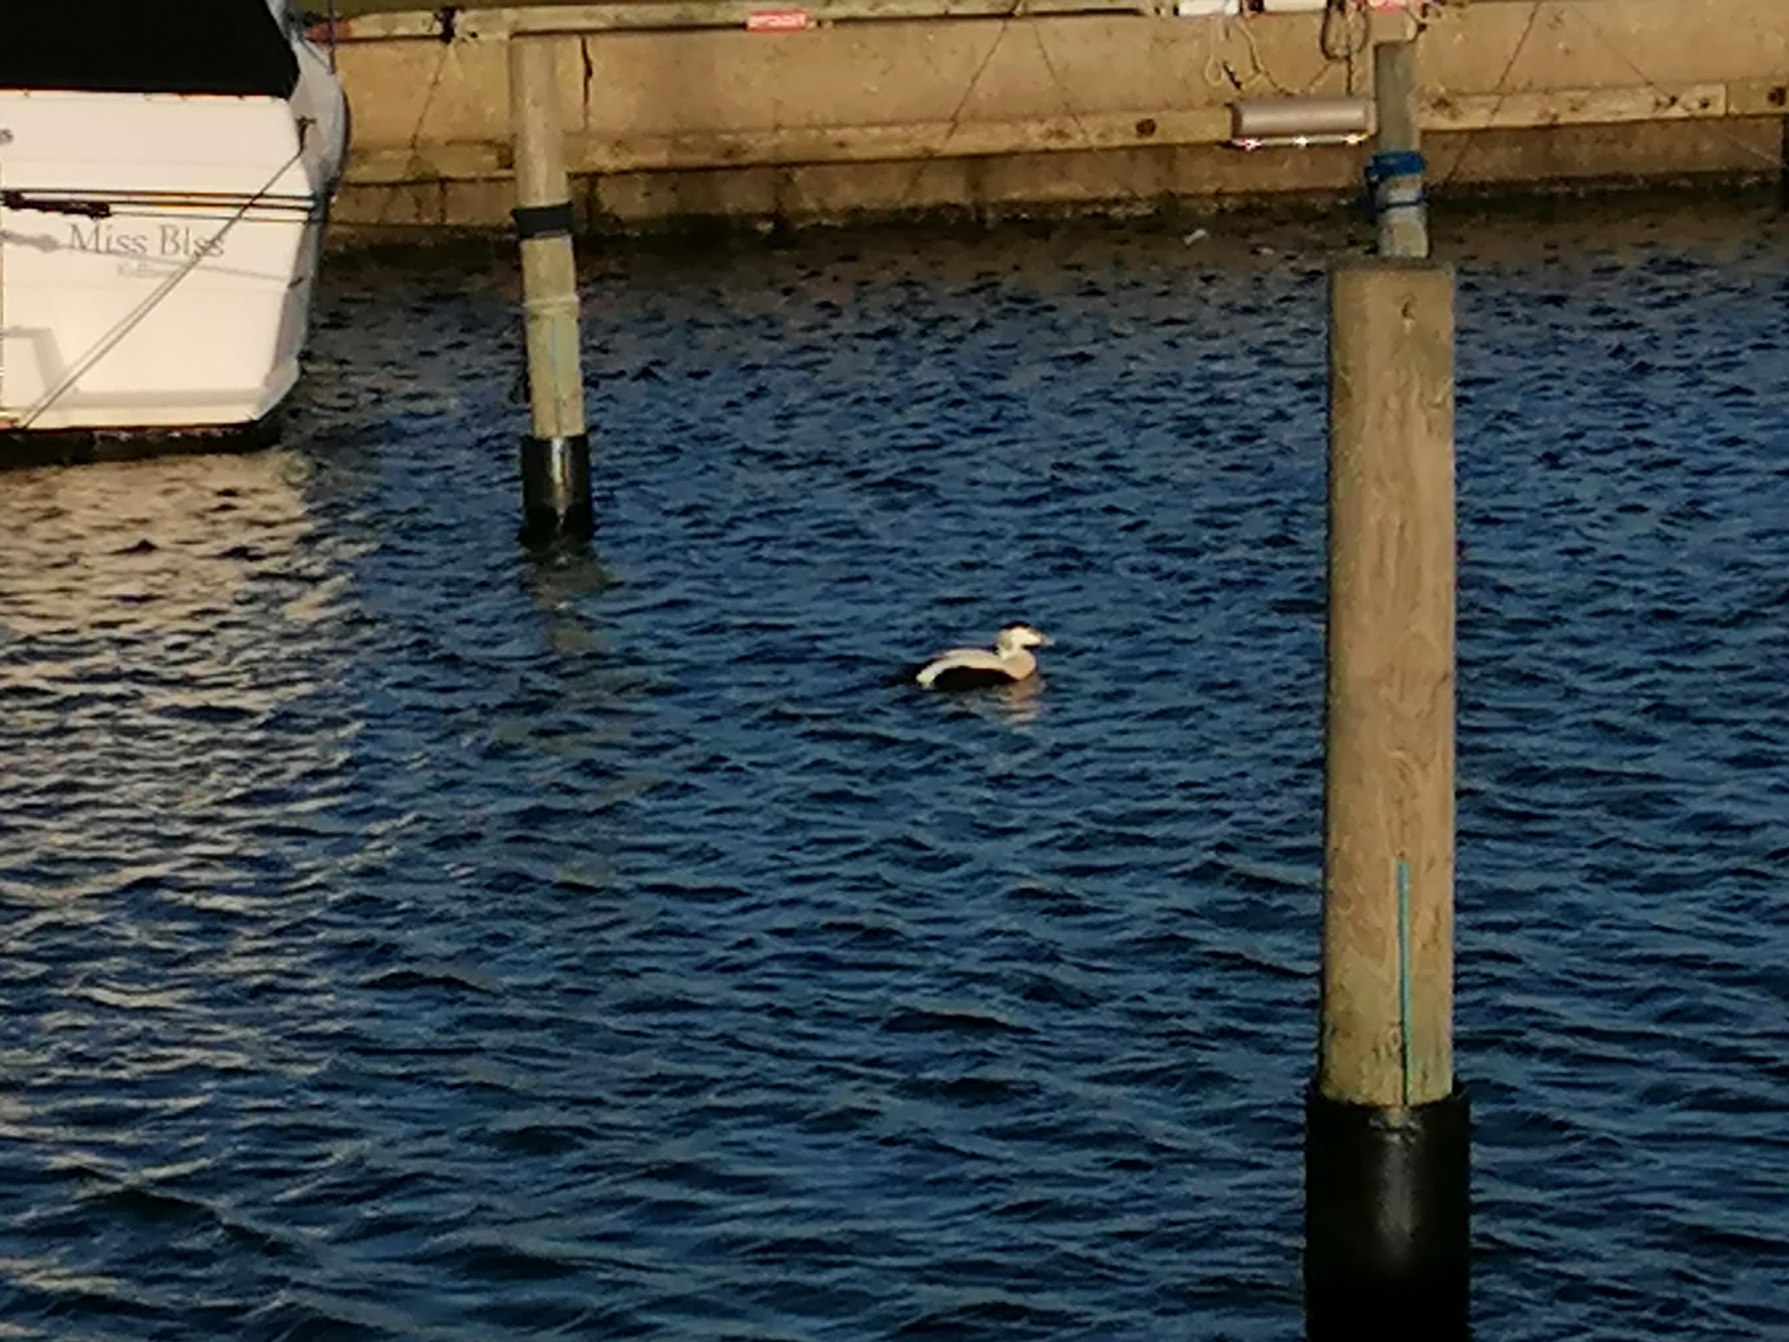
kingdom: Animalia
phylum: Chordata
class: Aves
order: Anseriformes
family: Anatidae
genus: Somateria
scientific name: Somateria mollissima
